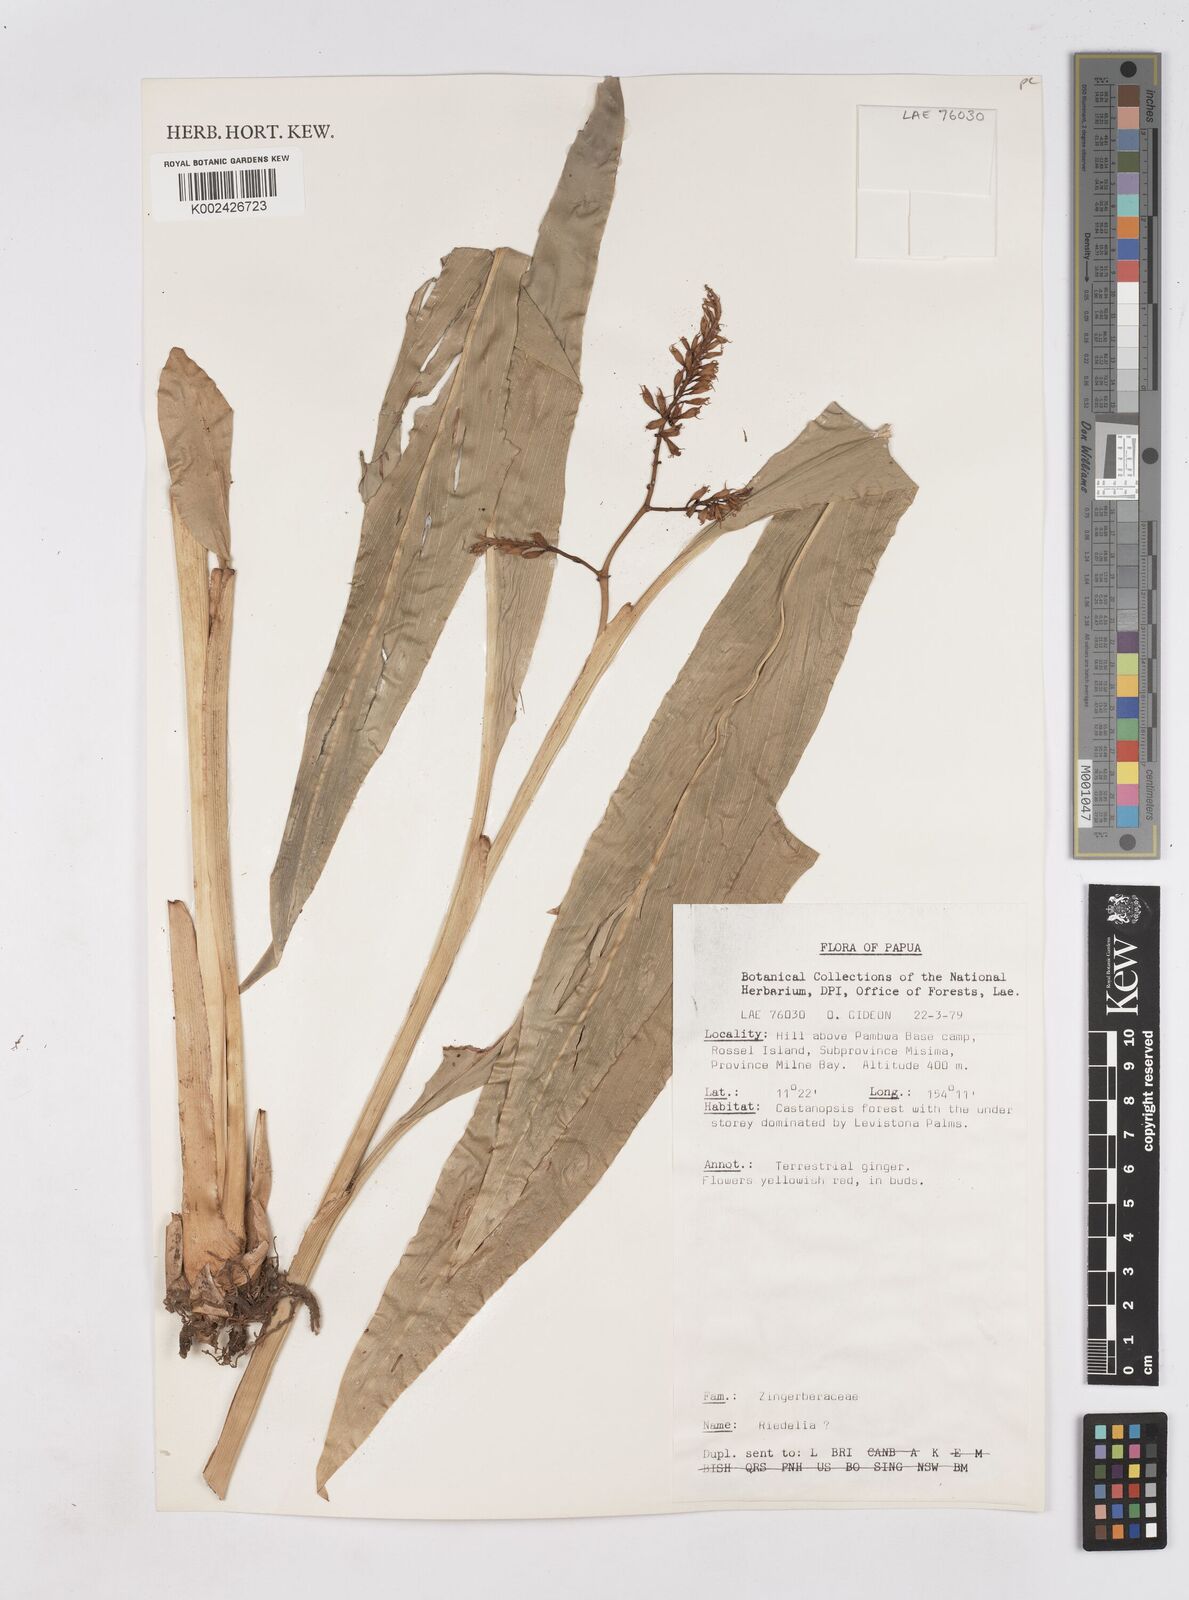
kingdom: Plantae
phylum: Tracheophyta
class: Liliopsida
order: Zingiberales
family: Zingiberaceae
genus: Riedelia
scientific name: Riedelia
